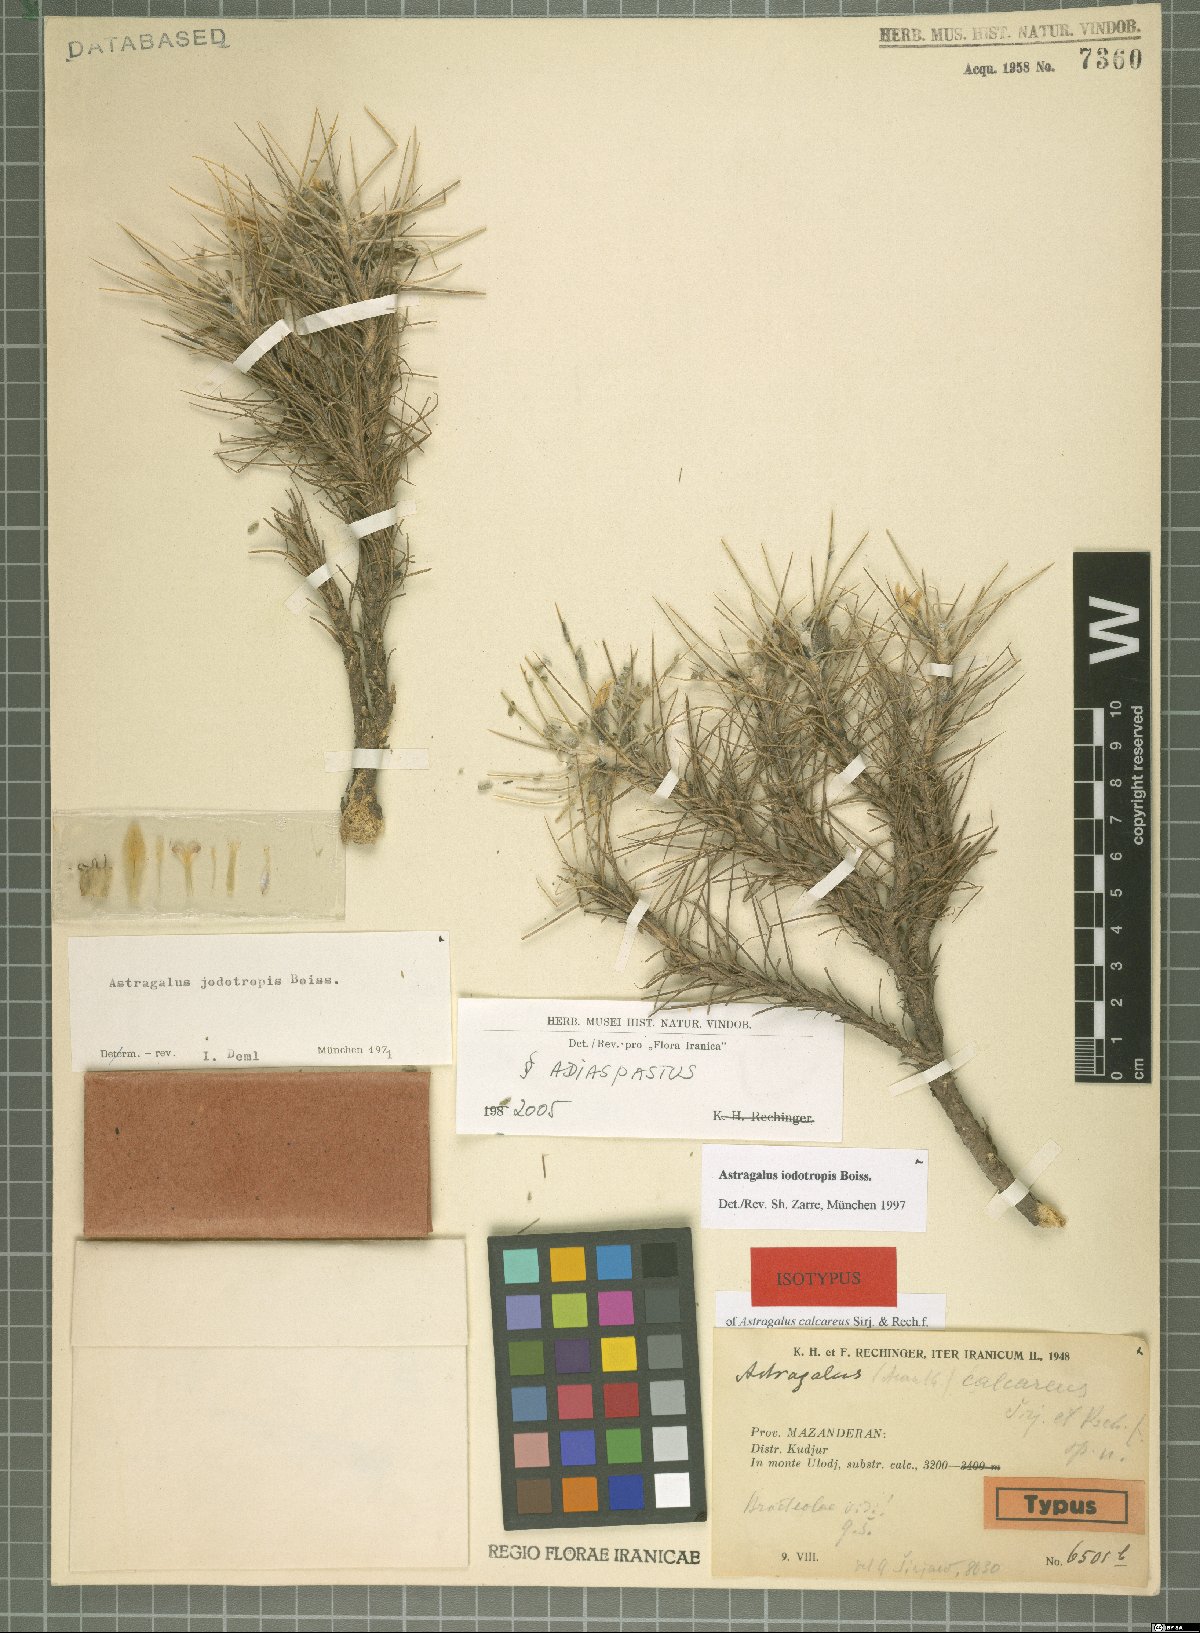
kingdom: Plantae
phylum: Tracheophyta
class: Magnoliopsida
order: Fabales
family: Fabaceae
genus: Astragalus
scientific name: Astragalus iodotropis
